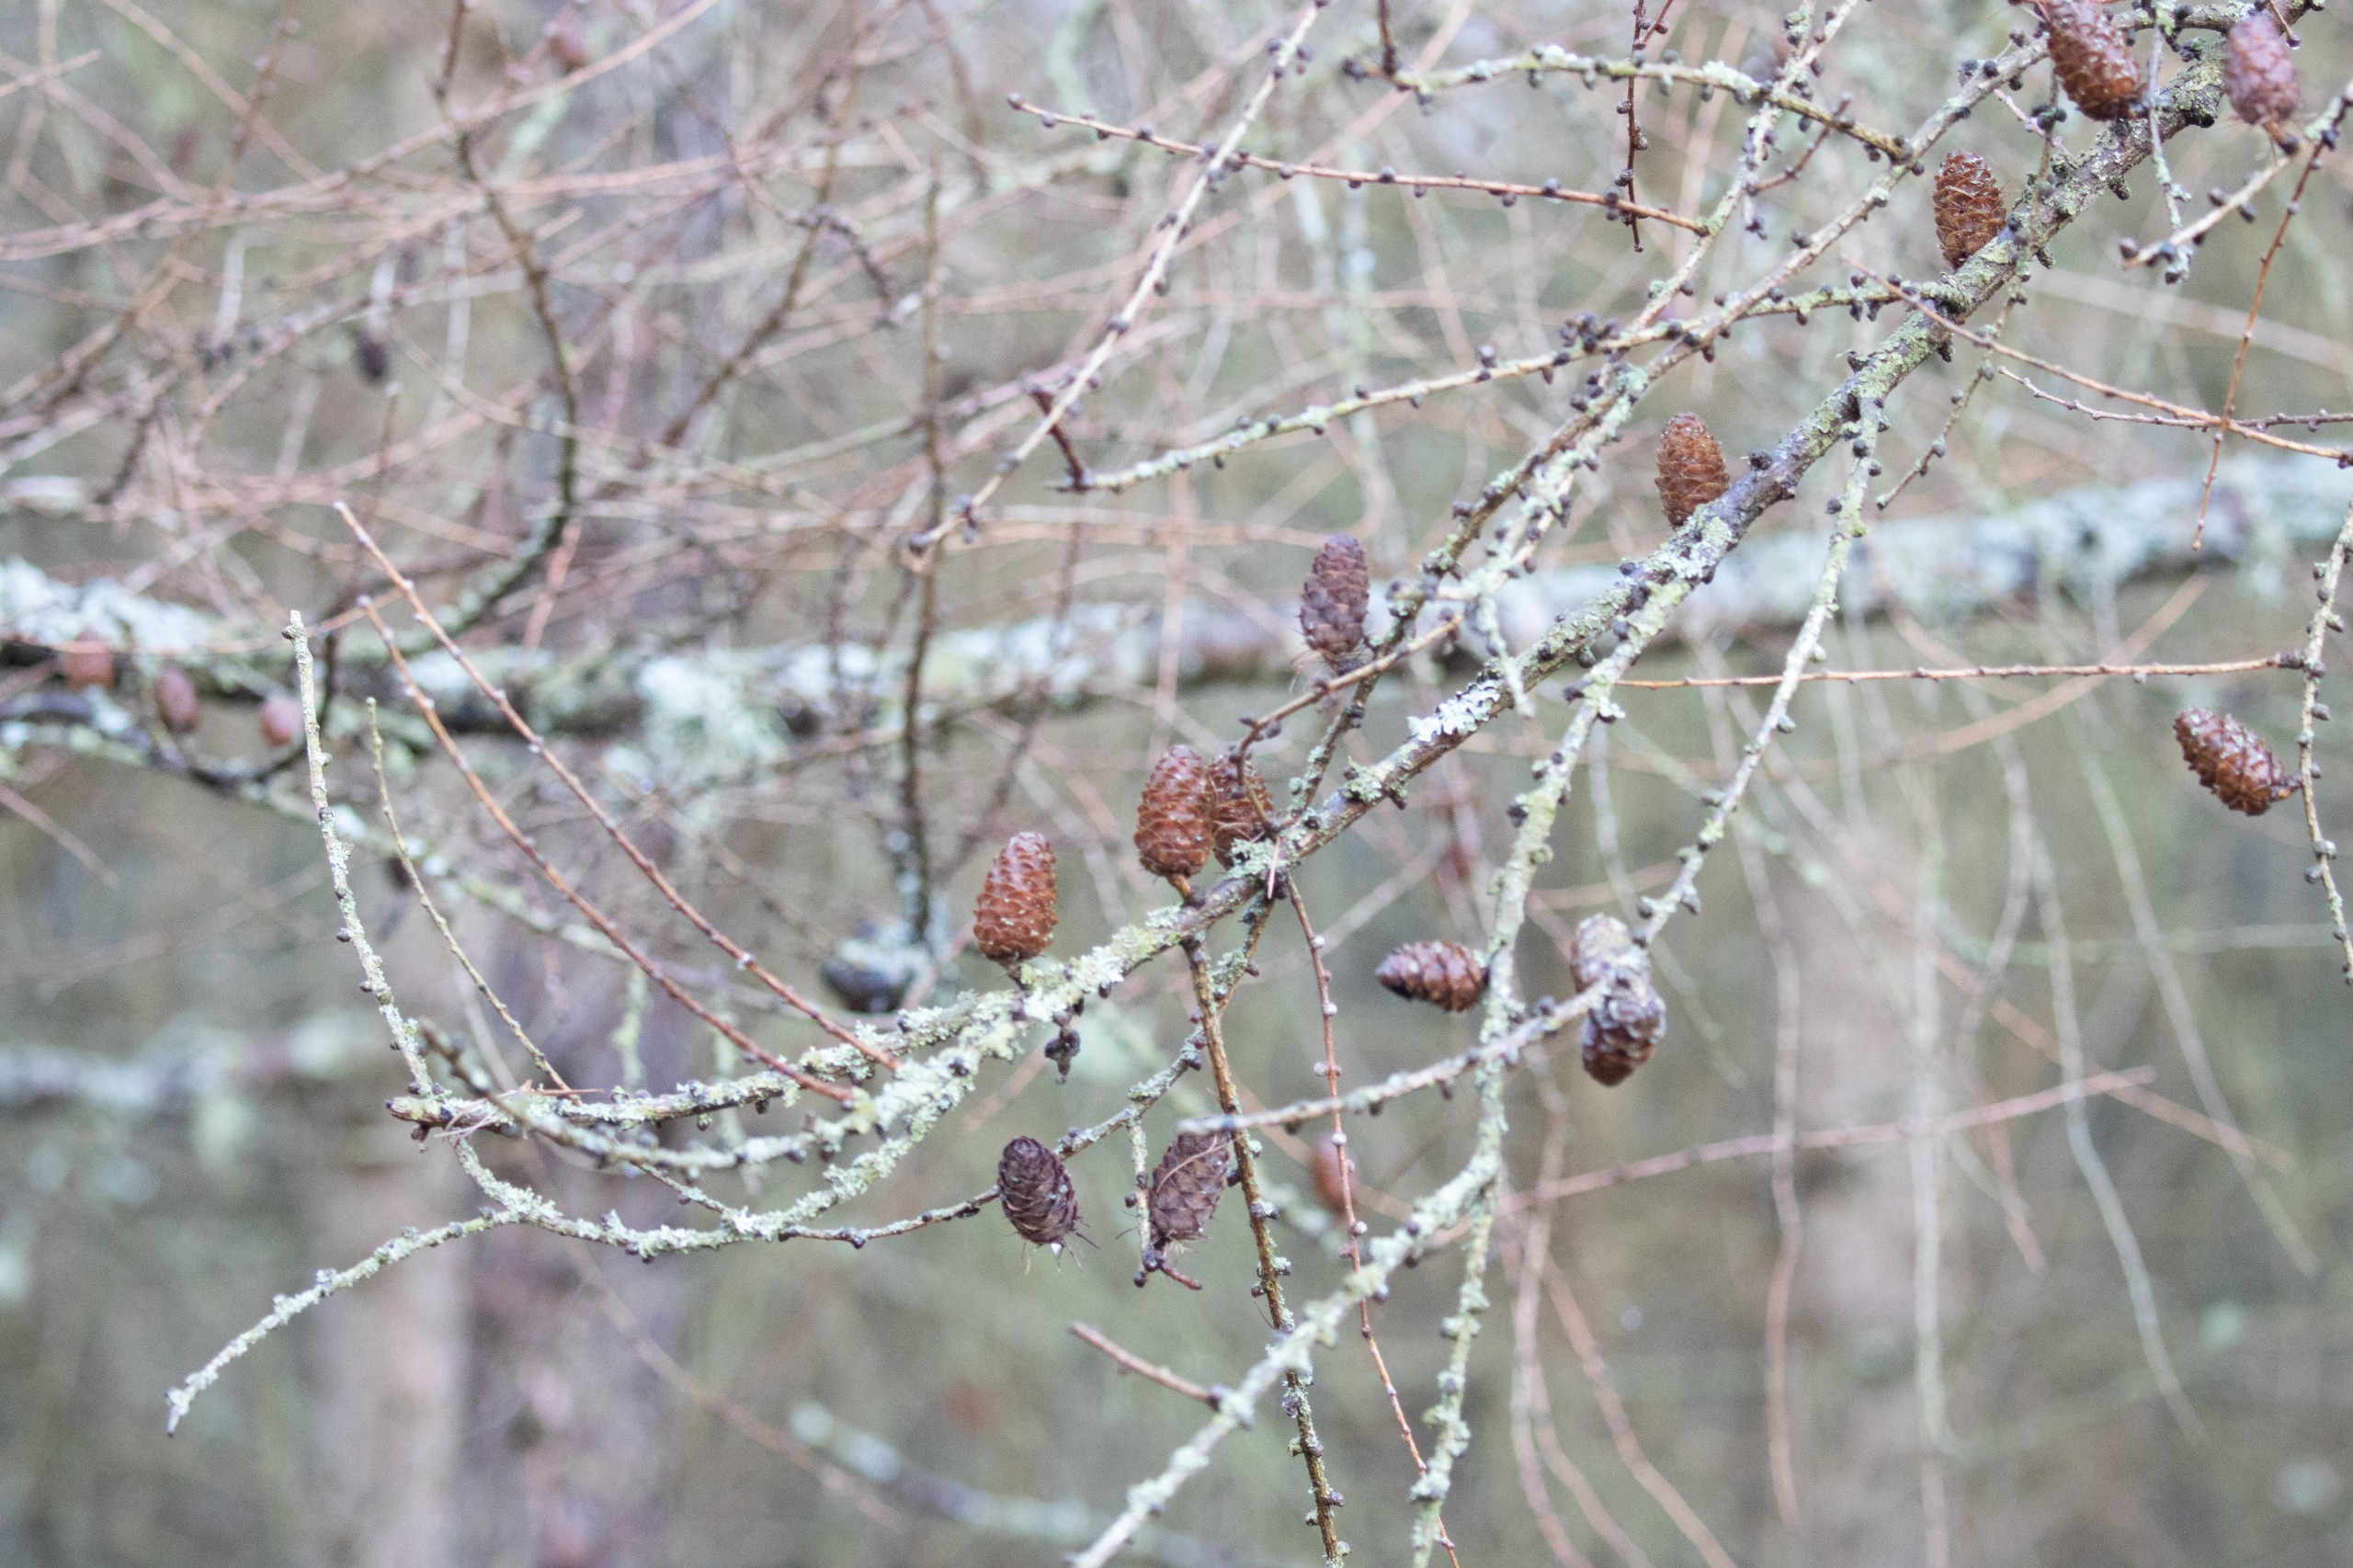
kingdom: Plantae
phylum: Tracheophyta
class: Pinopsida
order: Pinales
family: Pinaceae
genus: Larix
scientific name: Larix marschlinsii
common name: Hybrid-lærk
